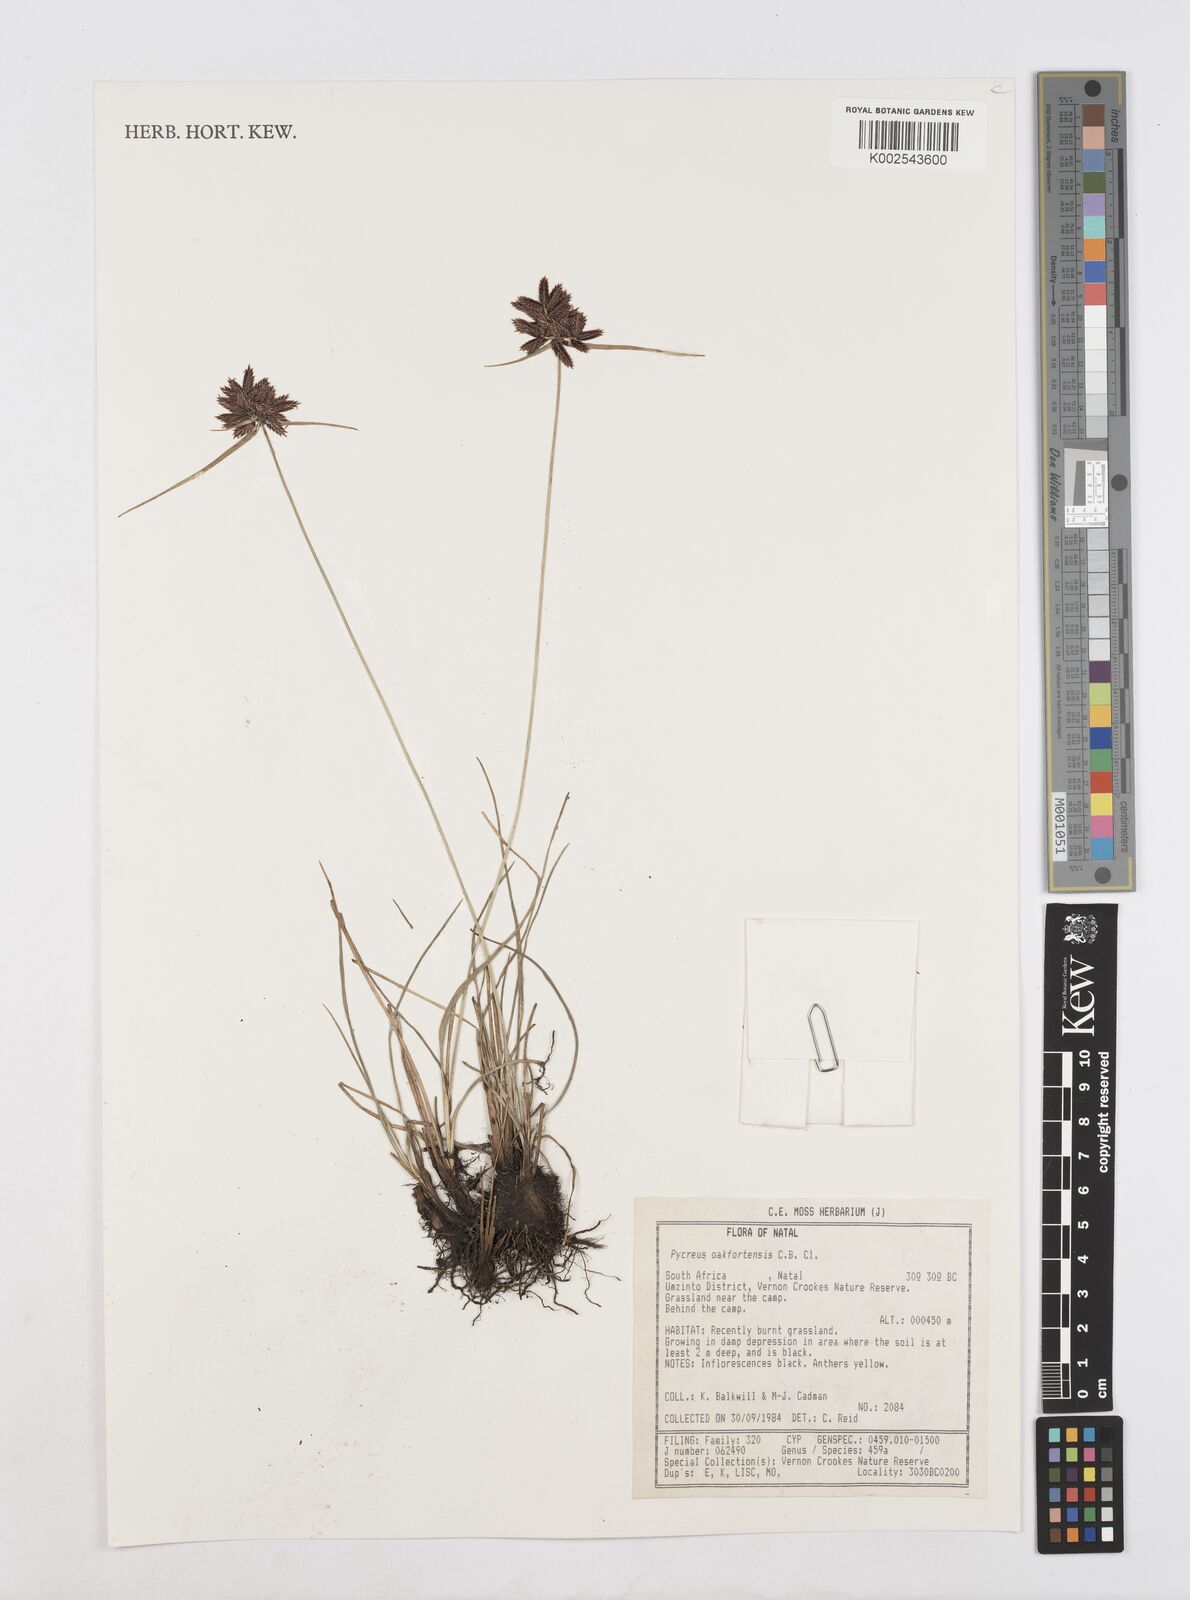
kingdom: Plantae
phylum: Tracheophyta
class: Liliopsida
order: Poales
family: Cyperaceae
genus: Cyperus
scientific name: Cyperus oakfortensis
